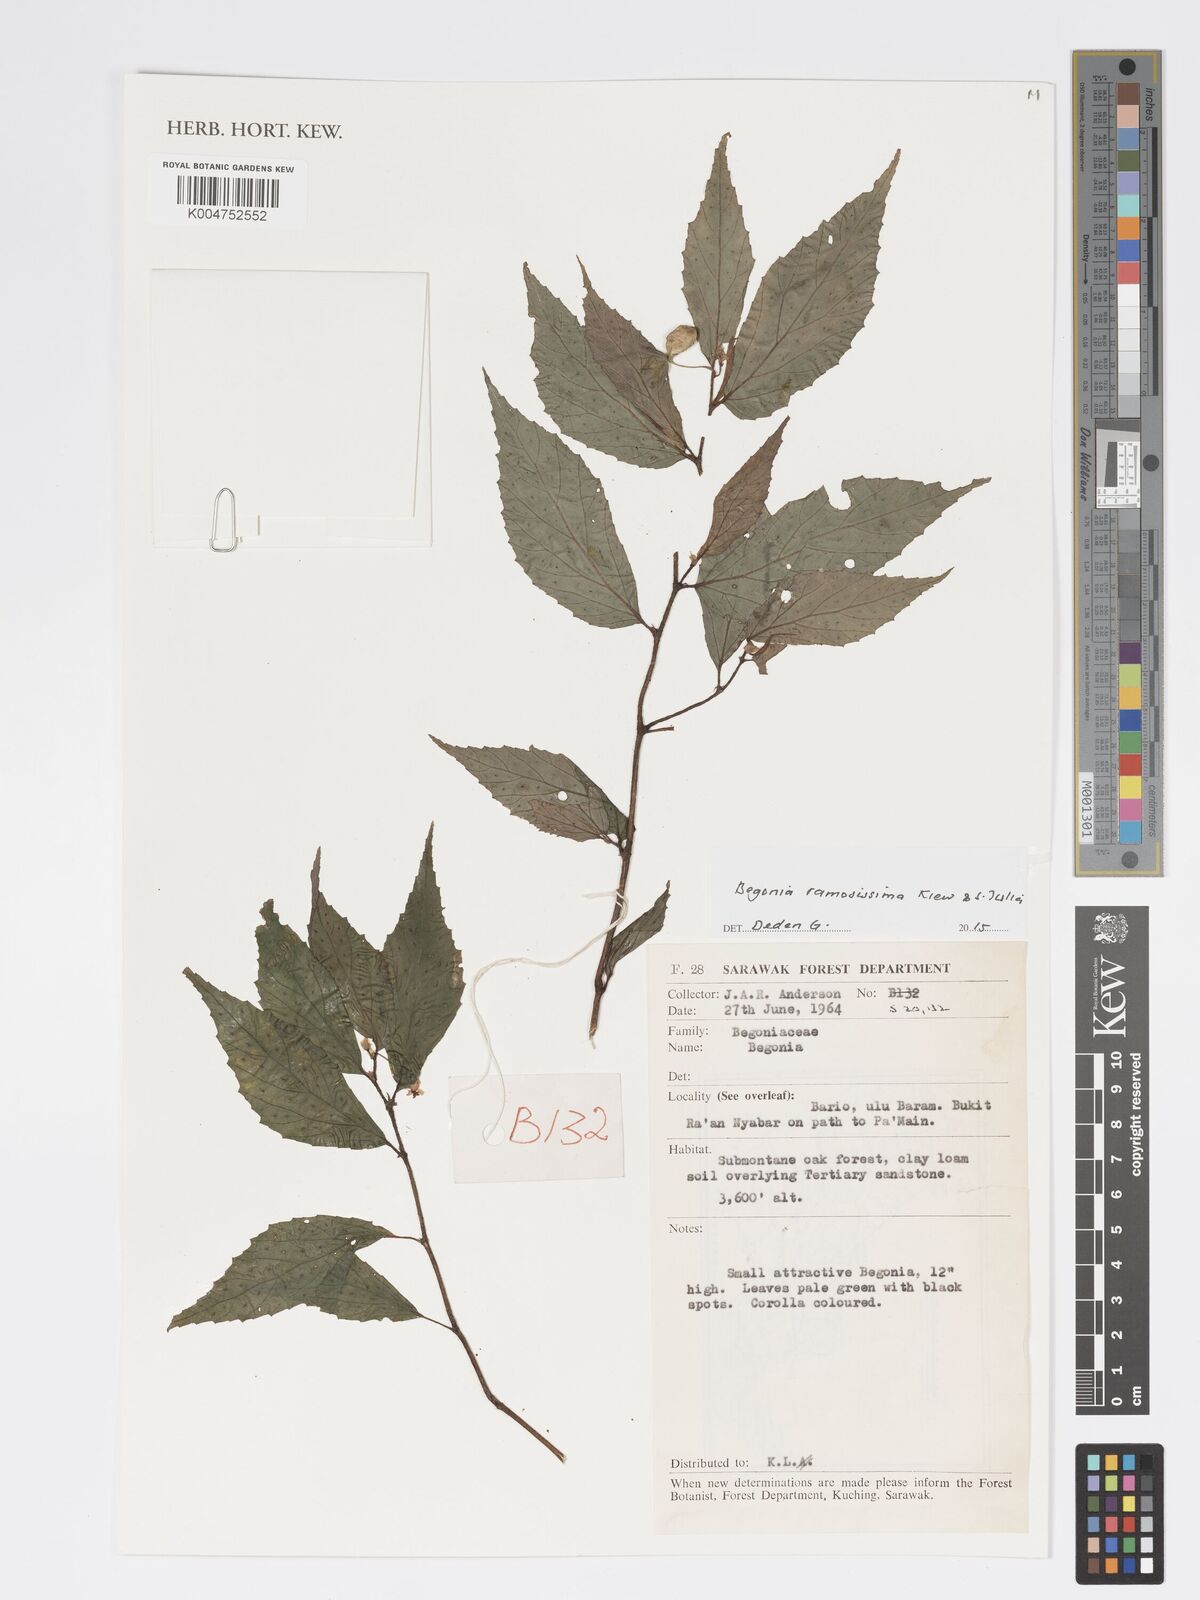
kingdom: Plantae
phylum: Tracheophyta
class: Magnoliopsida
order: Cucurbitales
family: Begoniaceae
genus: Begonia
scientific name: Begonia ramosissima
